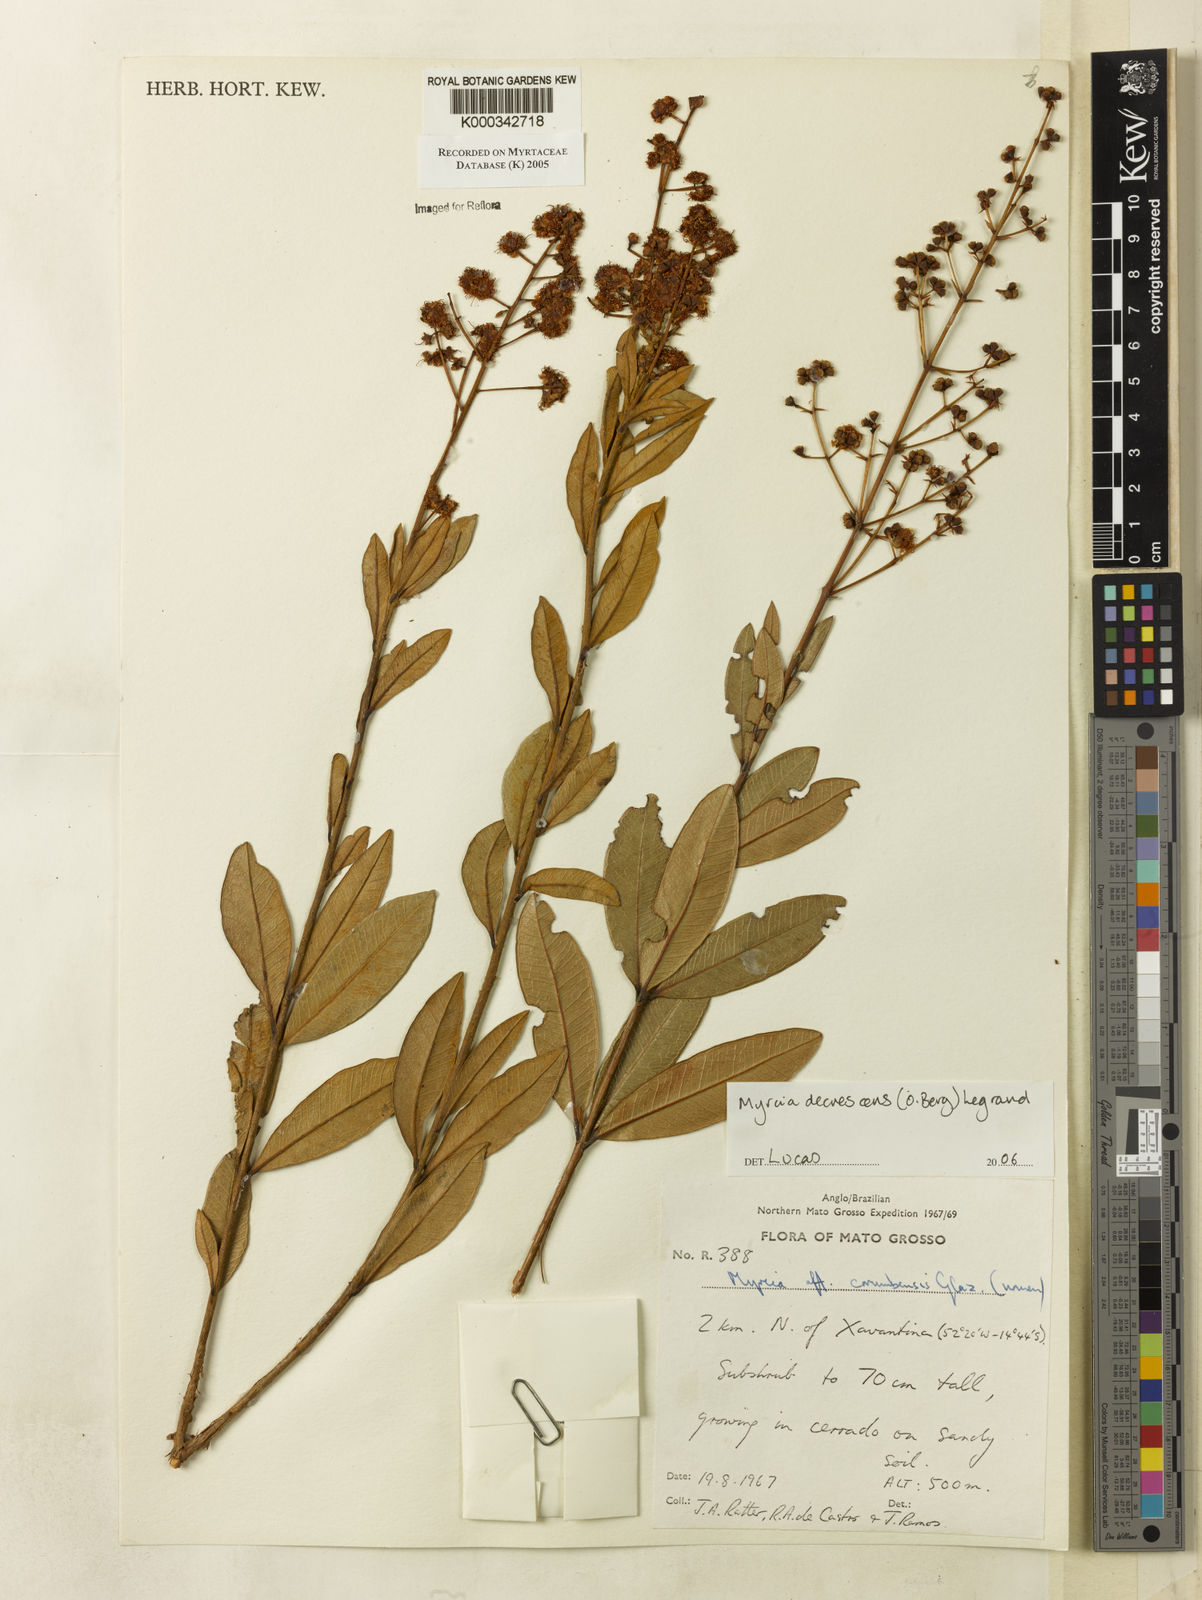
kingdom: Plantae
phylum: Tracheophyta
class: Magnoliopsida
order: Myrtales
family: Myrtaceae
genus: Myrcia
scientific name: Myrcia
